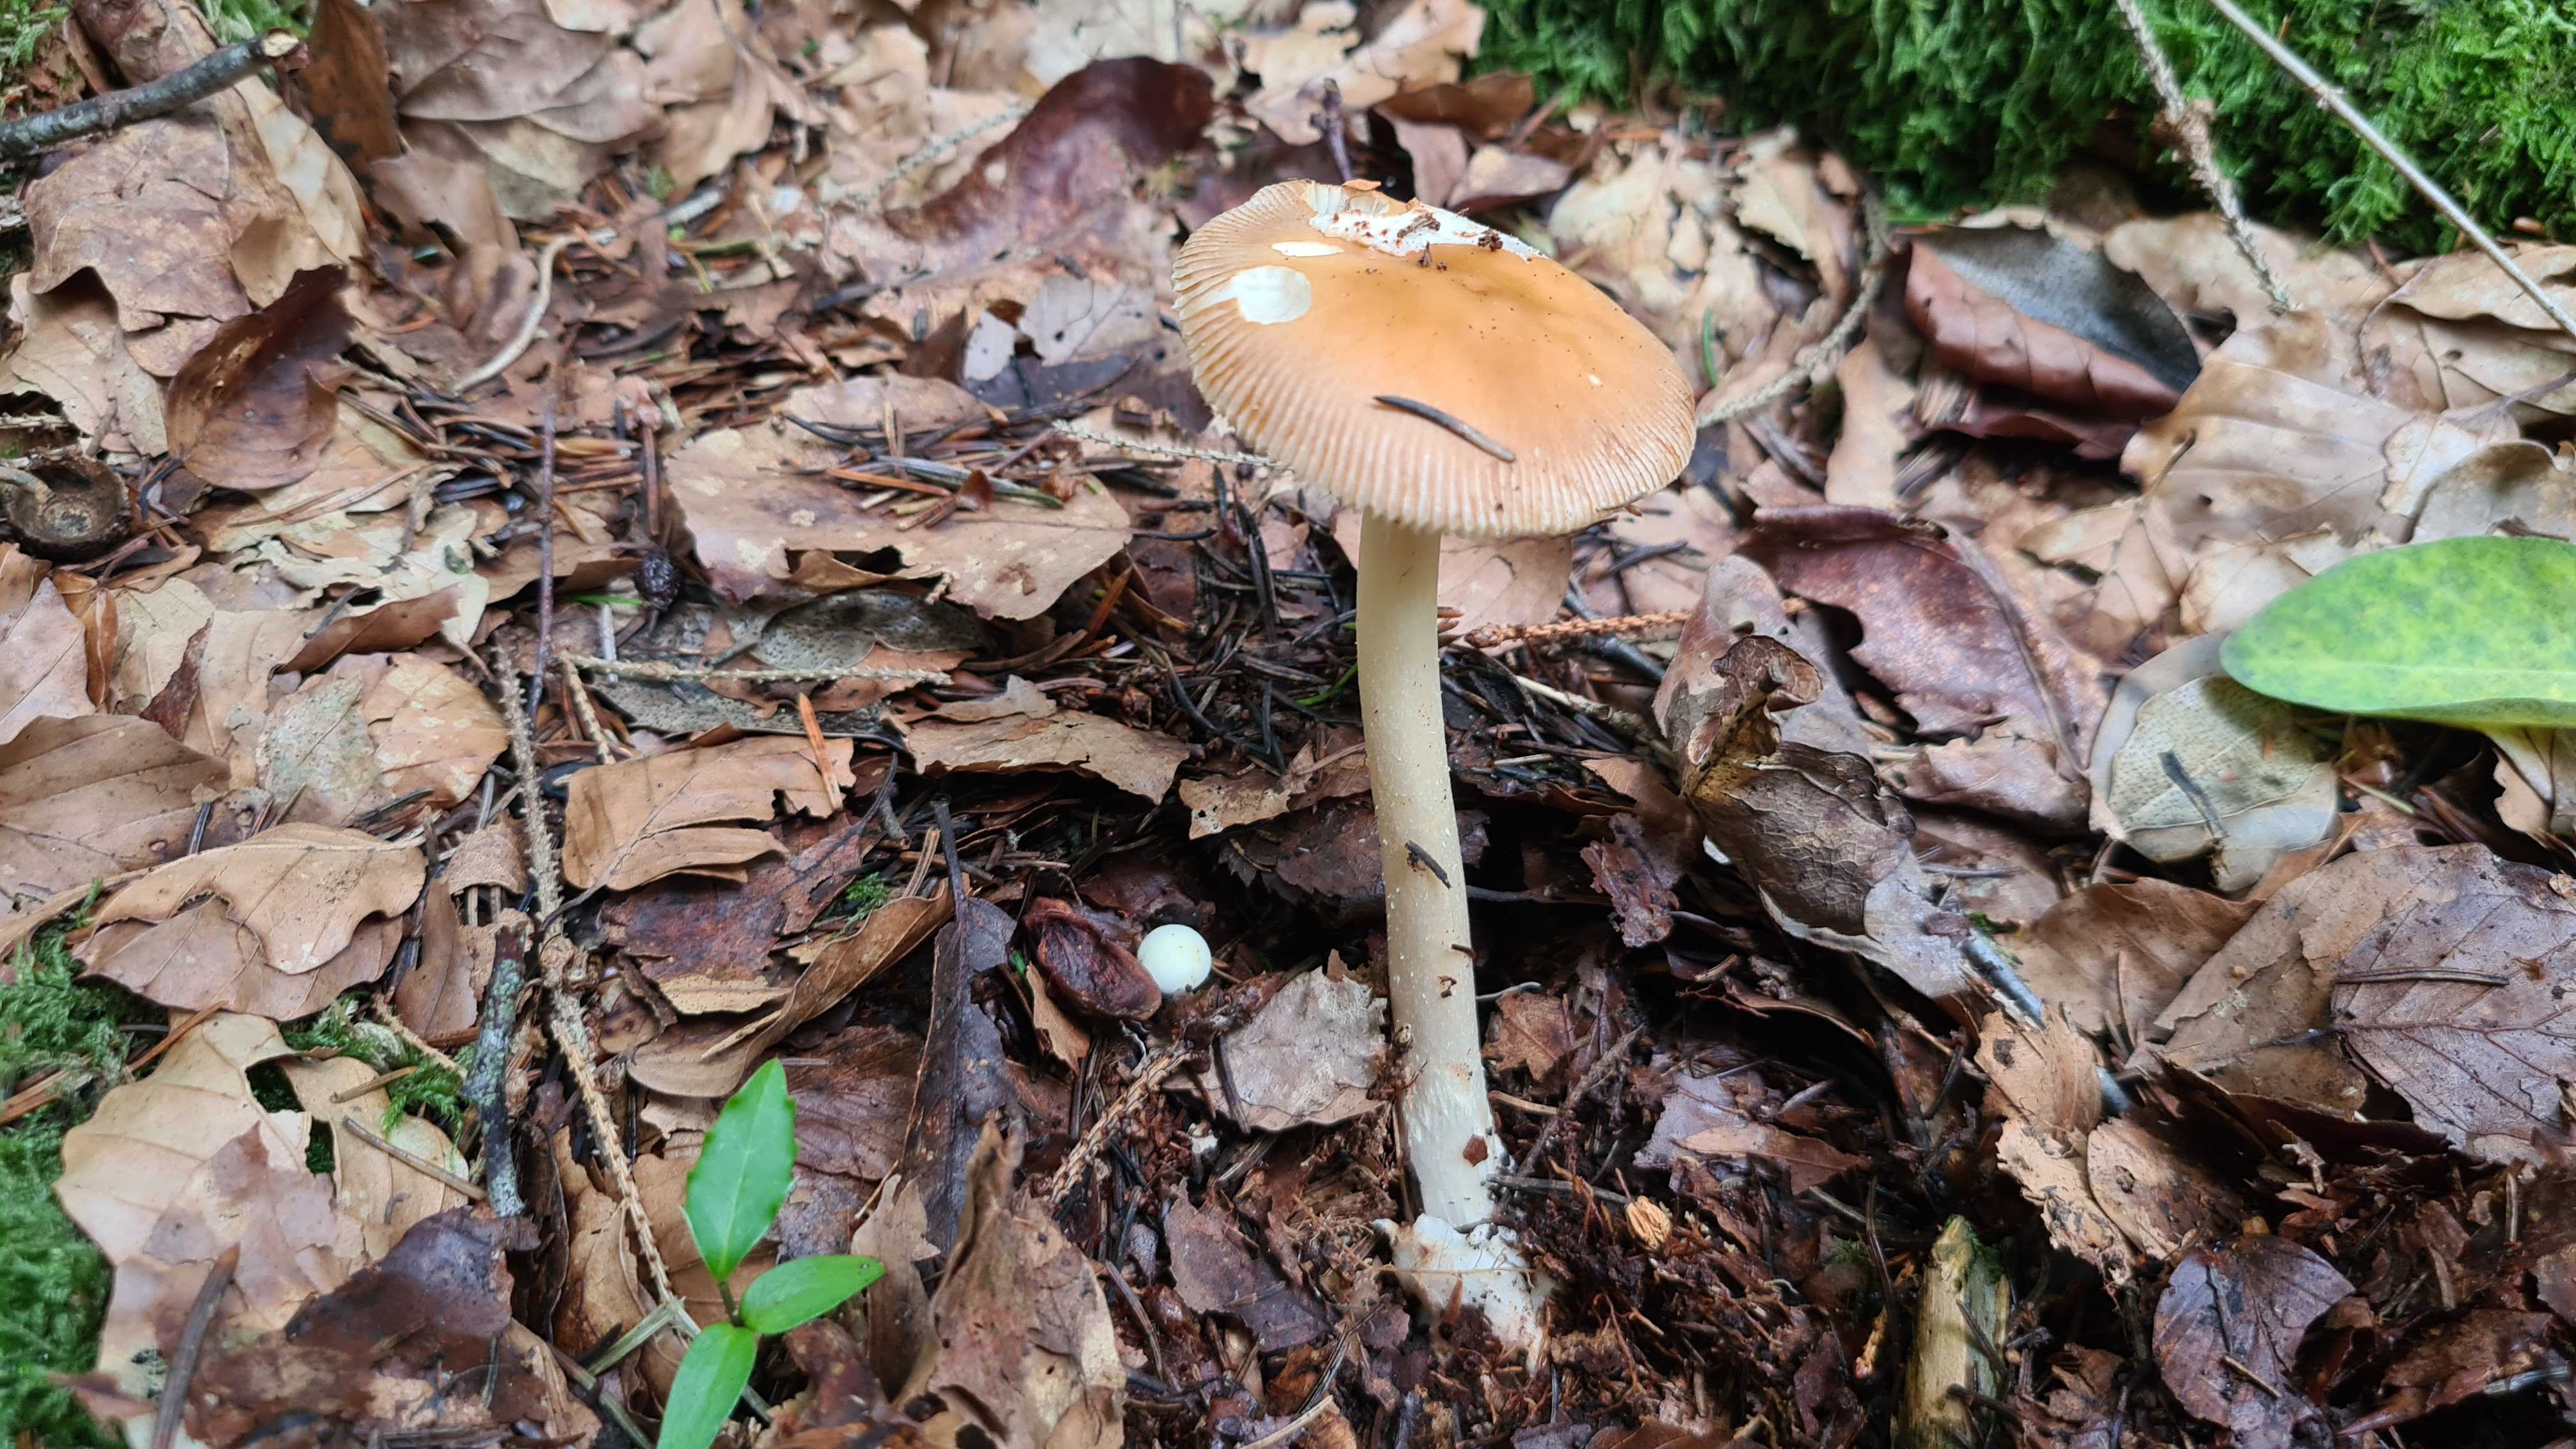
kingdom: Fungi
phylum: Basidiomycota
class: Agaricomycetes
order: Agaricales
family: Amanitaceae
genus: Amanita
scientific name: Amanita fulva
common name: brun kam-fluesvamp
